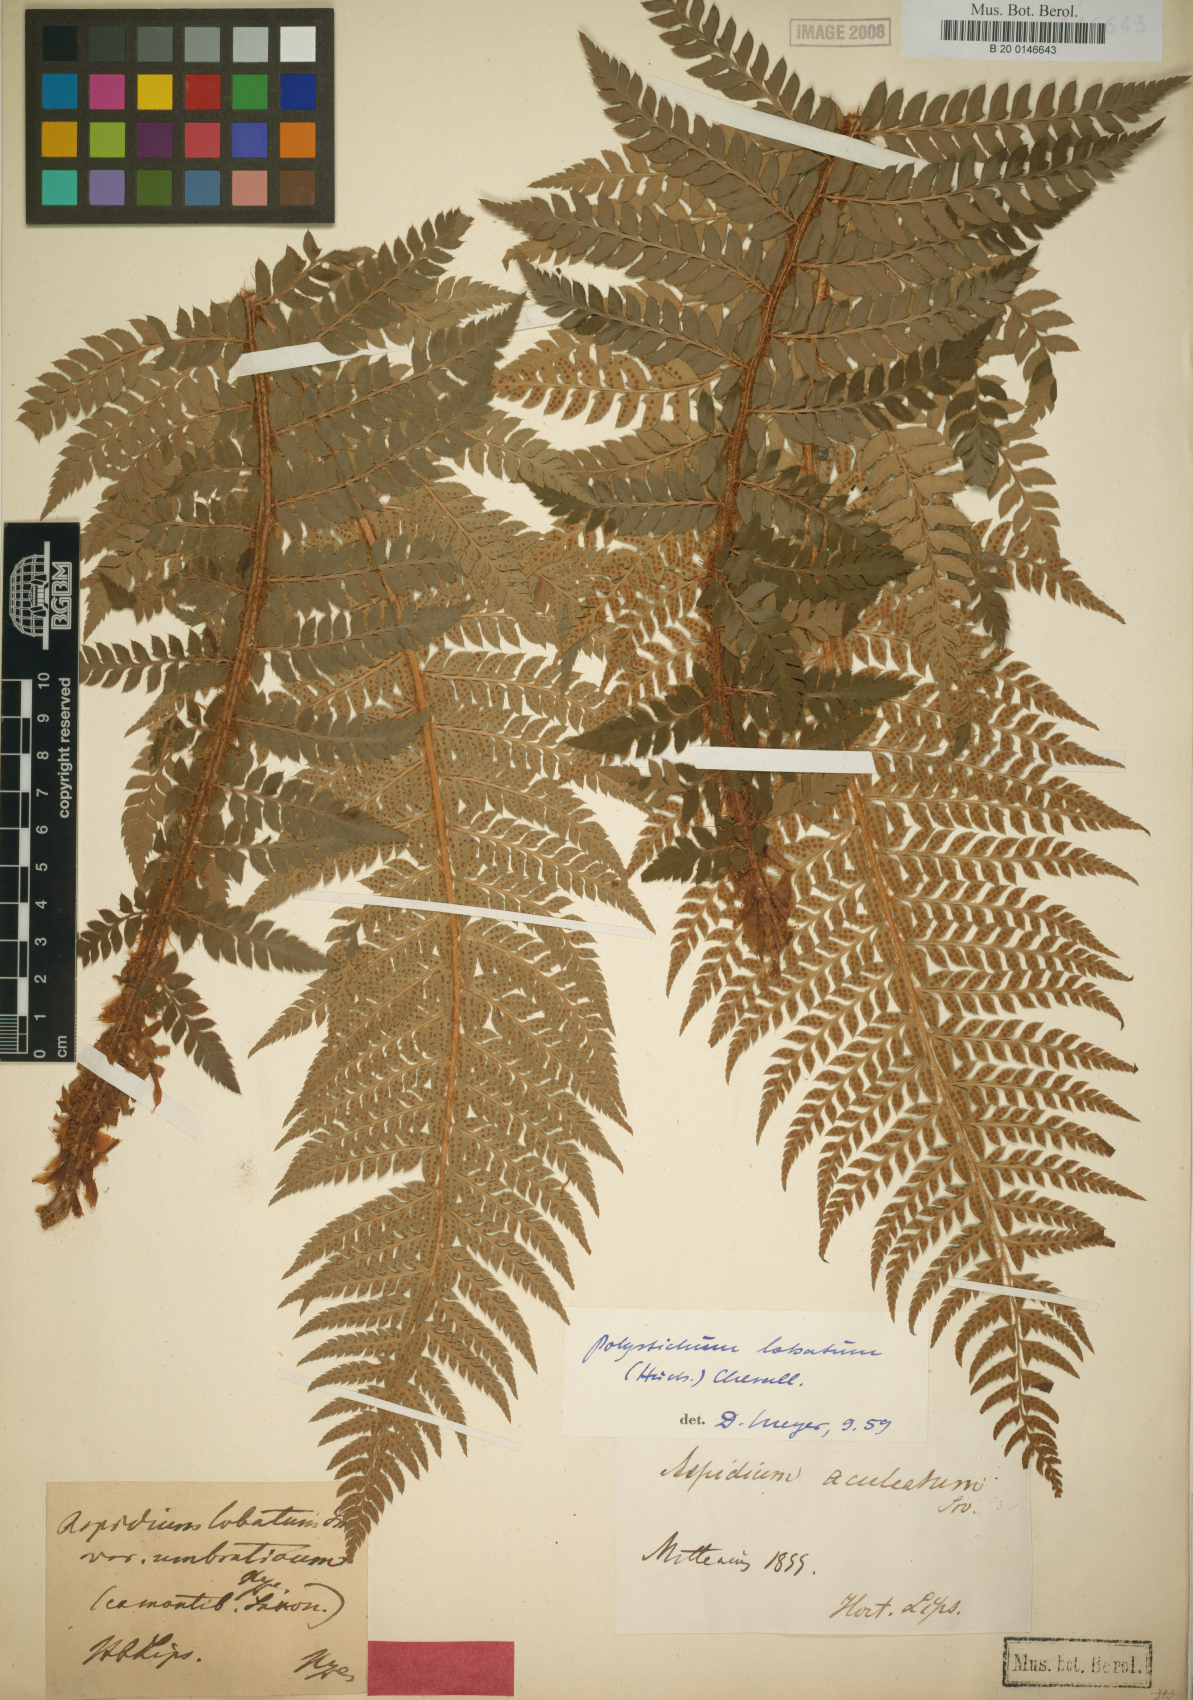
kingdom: Plantae
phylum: Tracheophyta
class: Polypodiopsida
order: Polypodiales
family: Dryopteridaceae
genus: Polystichum
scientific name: Polystichum aculeatum
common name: Hard shield-fern
